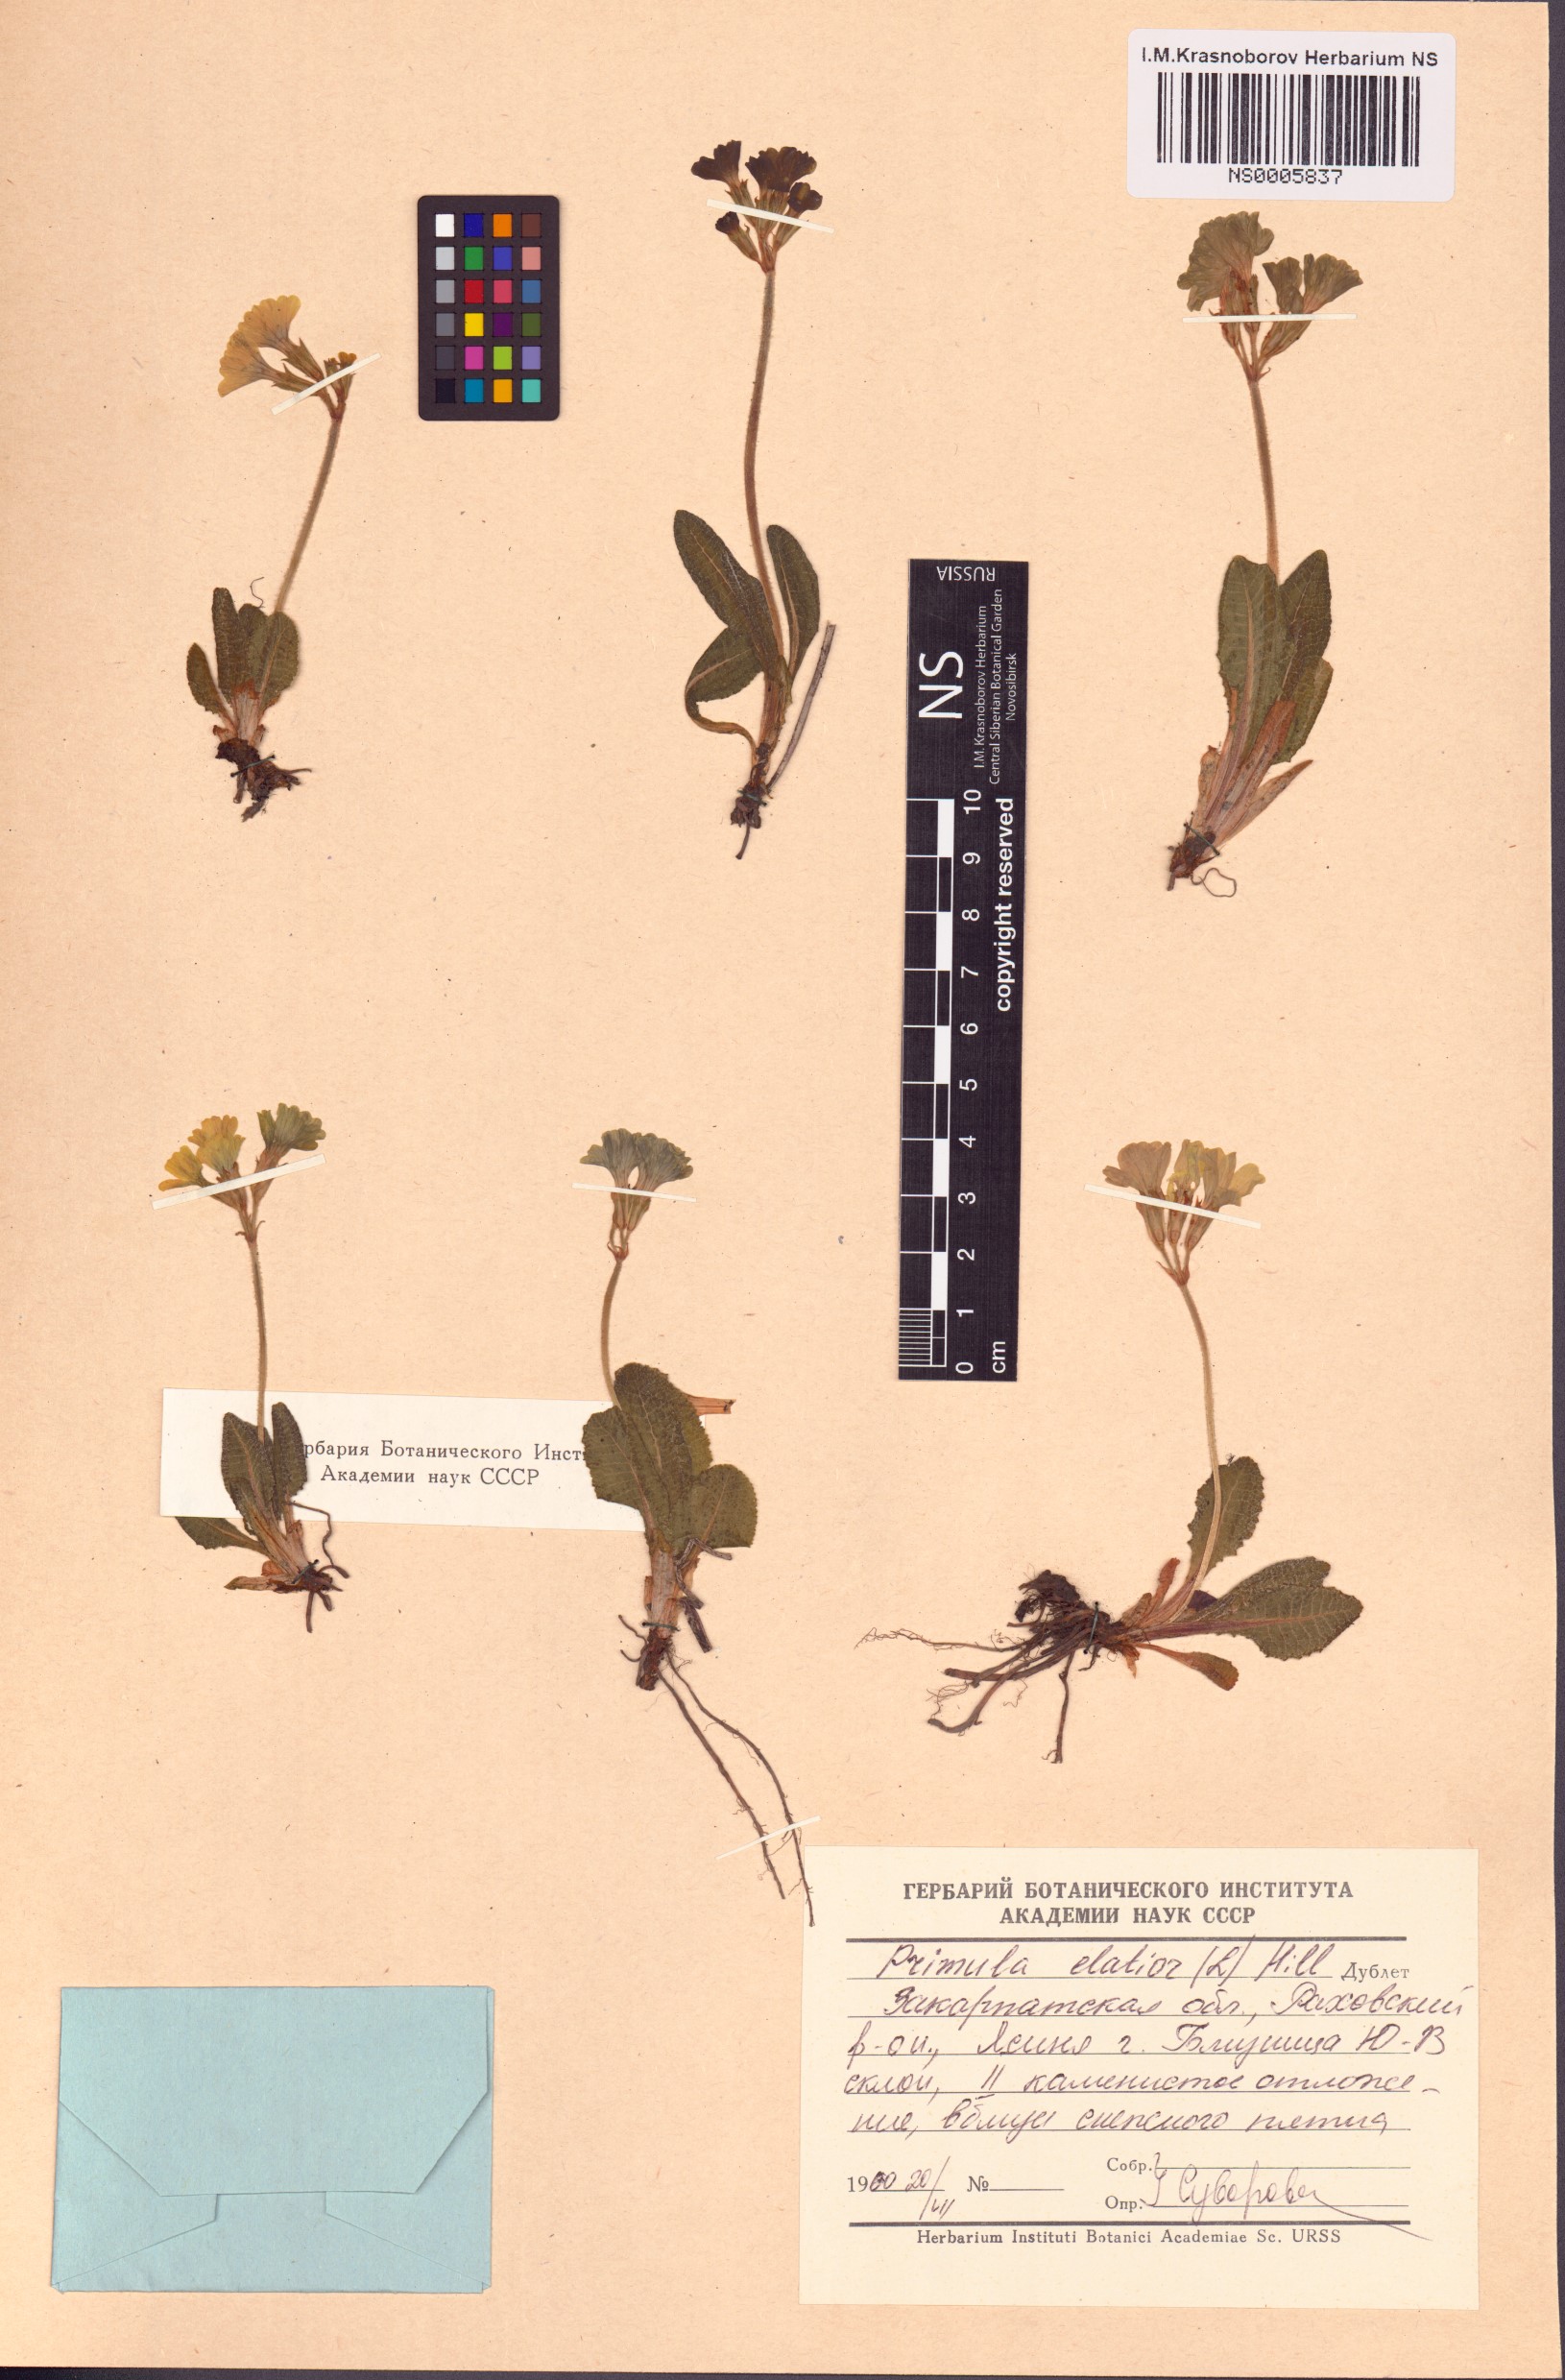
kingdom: Plantae
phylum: Tracheophyta
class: Magnoliopsida
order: Ericales
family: Primulaceae
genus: Primula
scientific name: Primula elatior
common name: Oxlip
